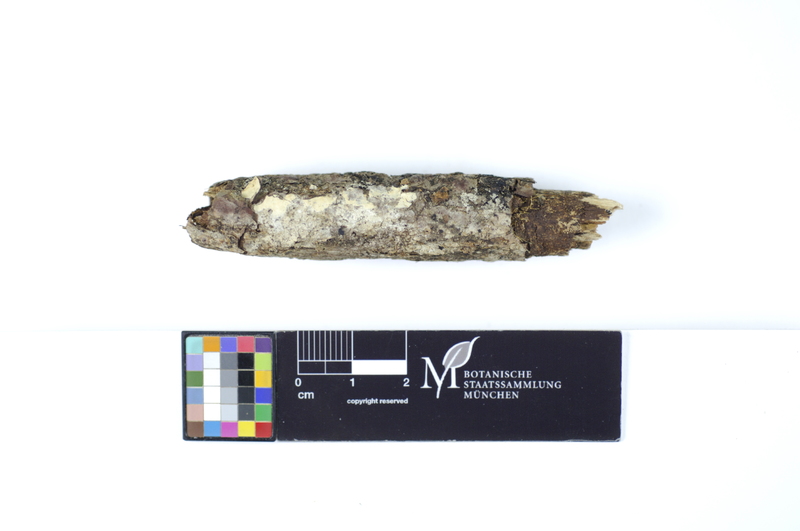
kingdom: Fungi
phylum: Basidiomycota
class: Agaricomycetes
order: Polyporales
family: Hyphodermataceae
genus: Hyphoderma
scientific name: Hyphoderma roseocremeum
